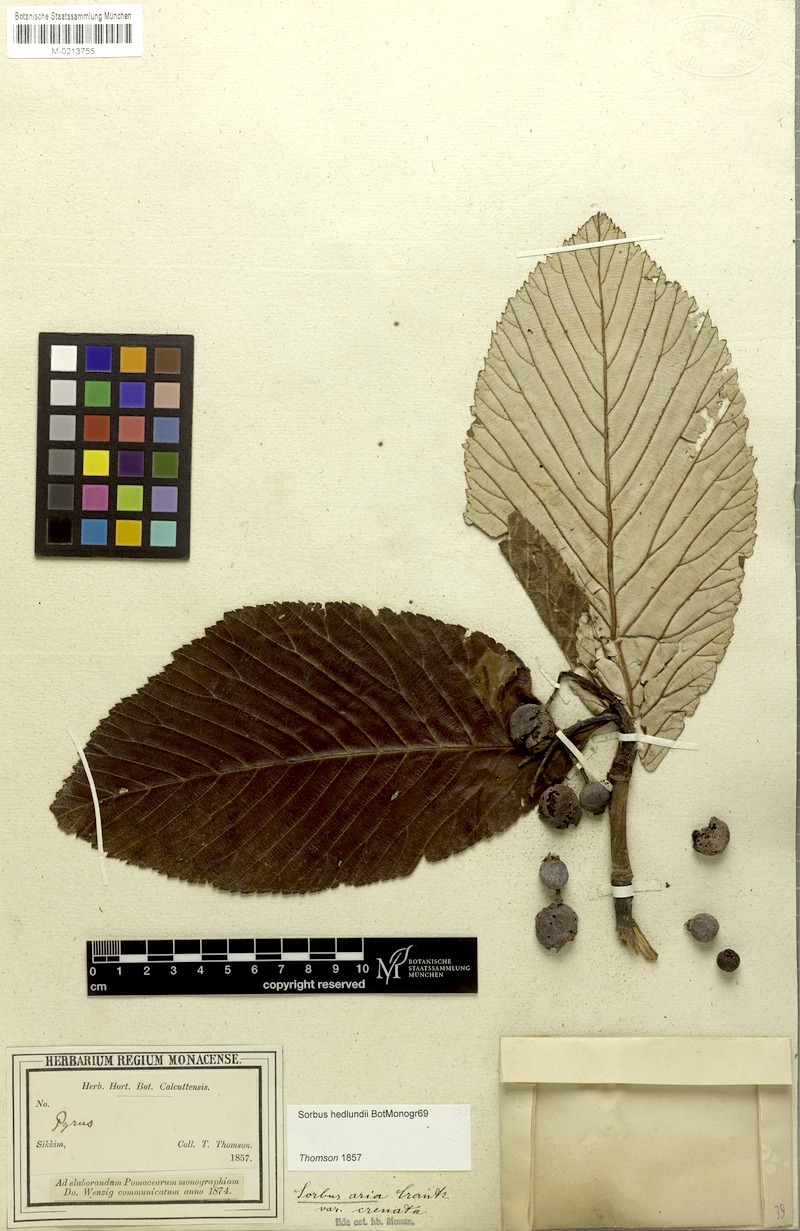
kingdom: Plantae
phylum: Tracheophyta
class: Magnoliopsida
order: Rosales
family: Rosaceae
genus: Sorbus
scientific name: Sorbus hedlundii
